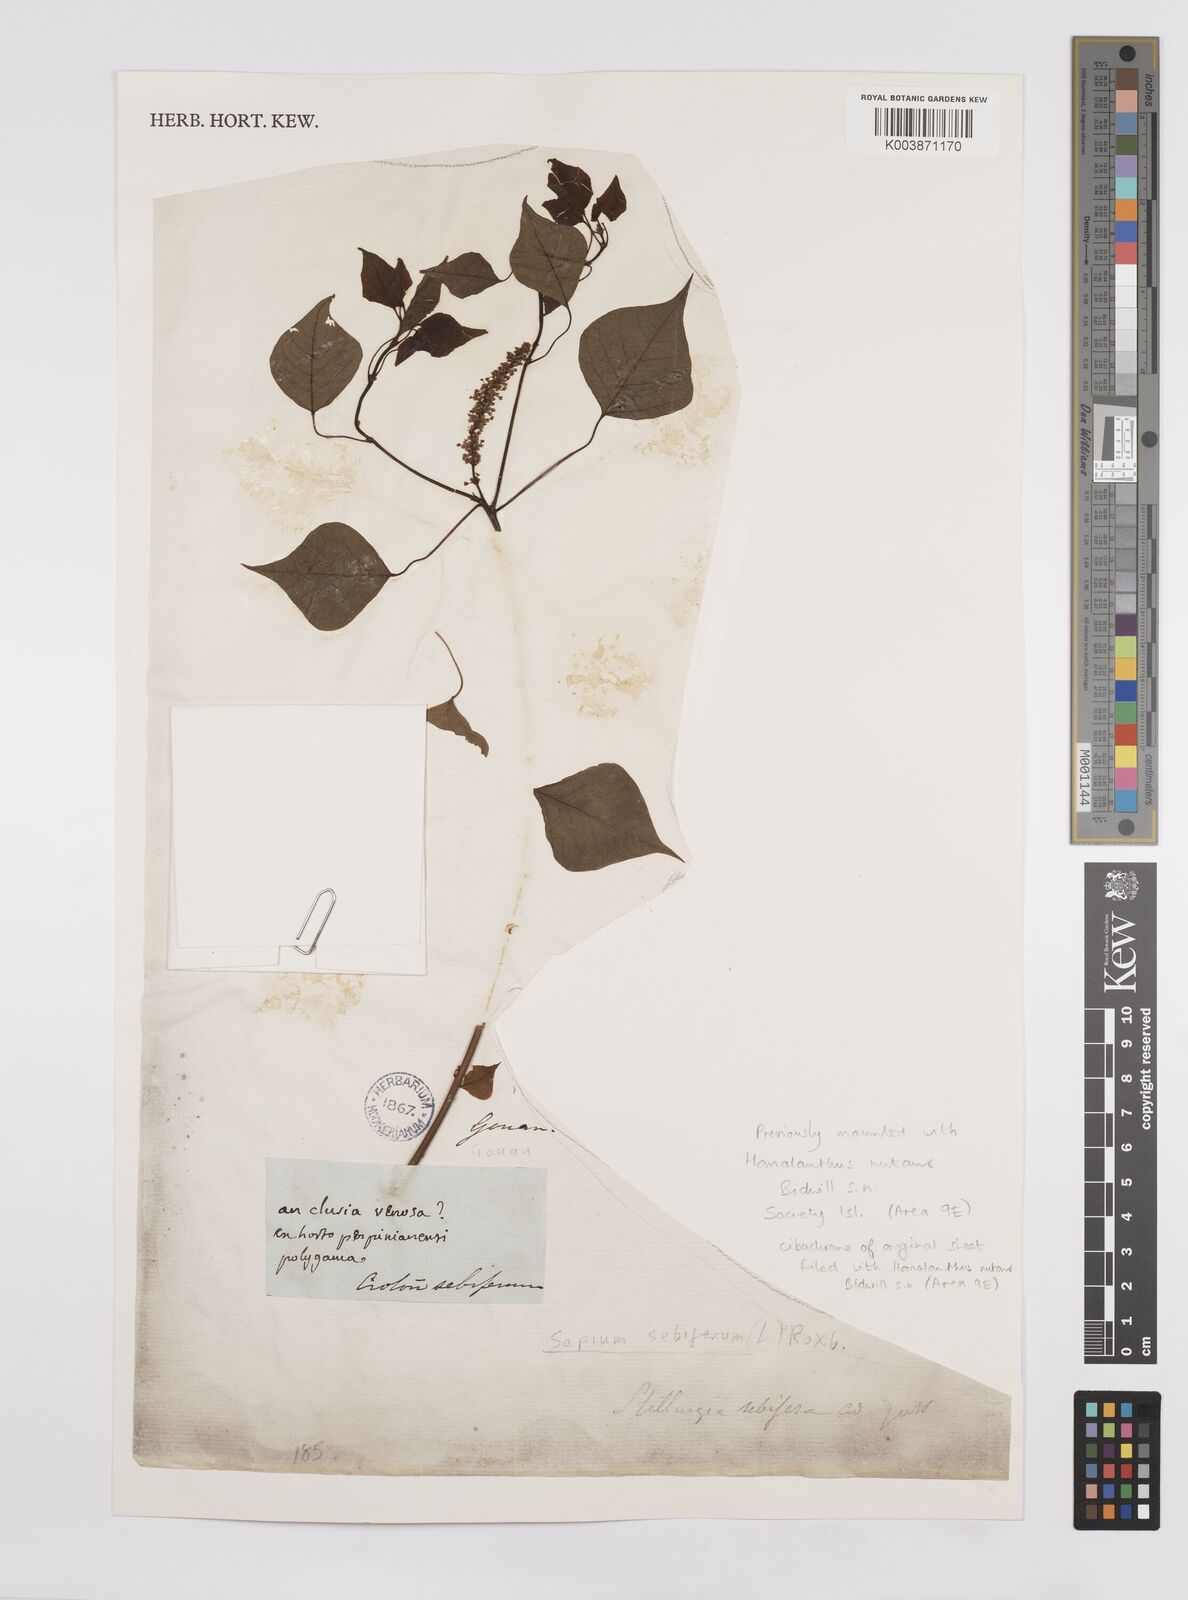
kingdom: Plantae
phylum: Tracheophyta
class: Magnoliopsida
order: Malpighiales
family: Euphorbiaceae
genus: Triadica
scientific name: Triadica sebifera
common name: Chinese tallow
